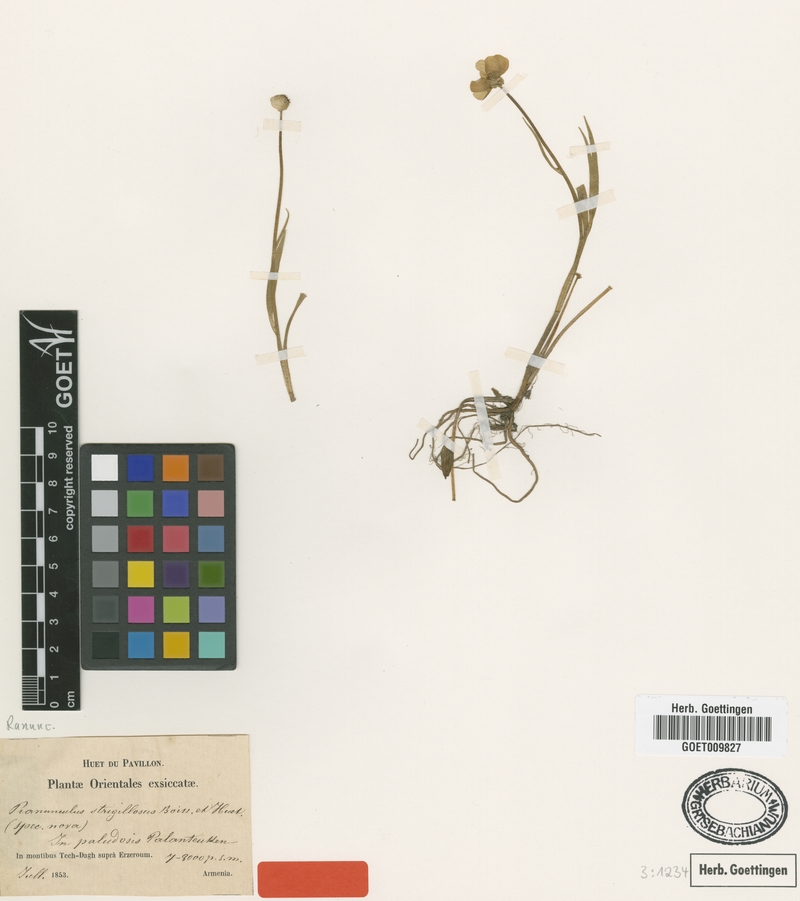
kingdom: Plantae
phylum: Tracheophyta
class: Magnoliopsida
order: Ranunculales
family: Ranunculaceae
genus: Ranunculus
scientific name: Ranunculus strigillosus
